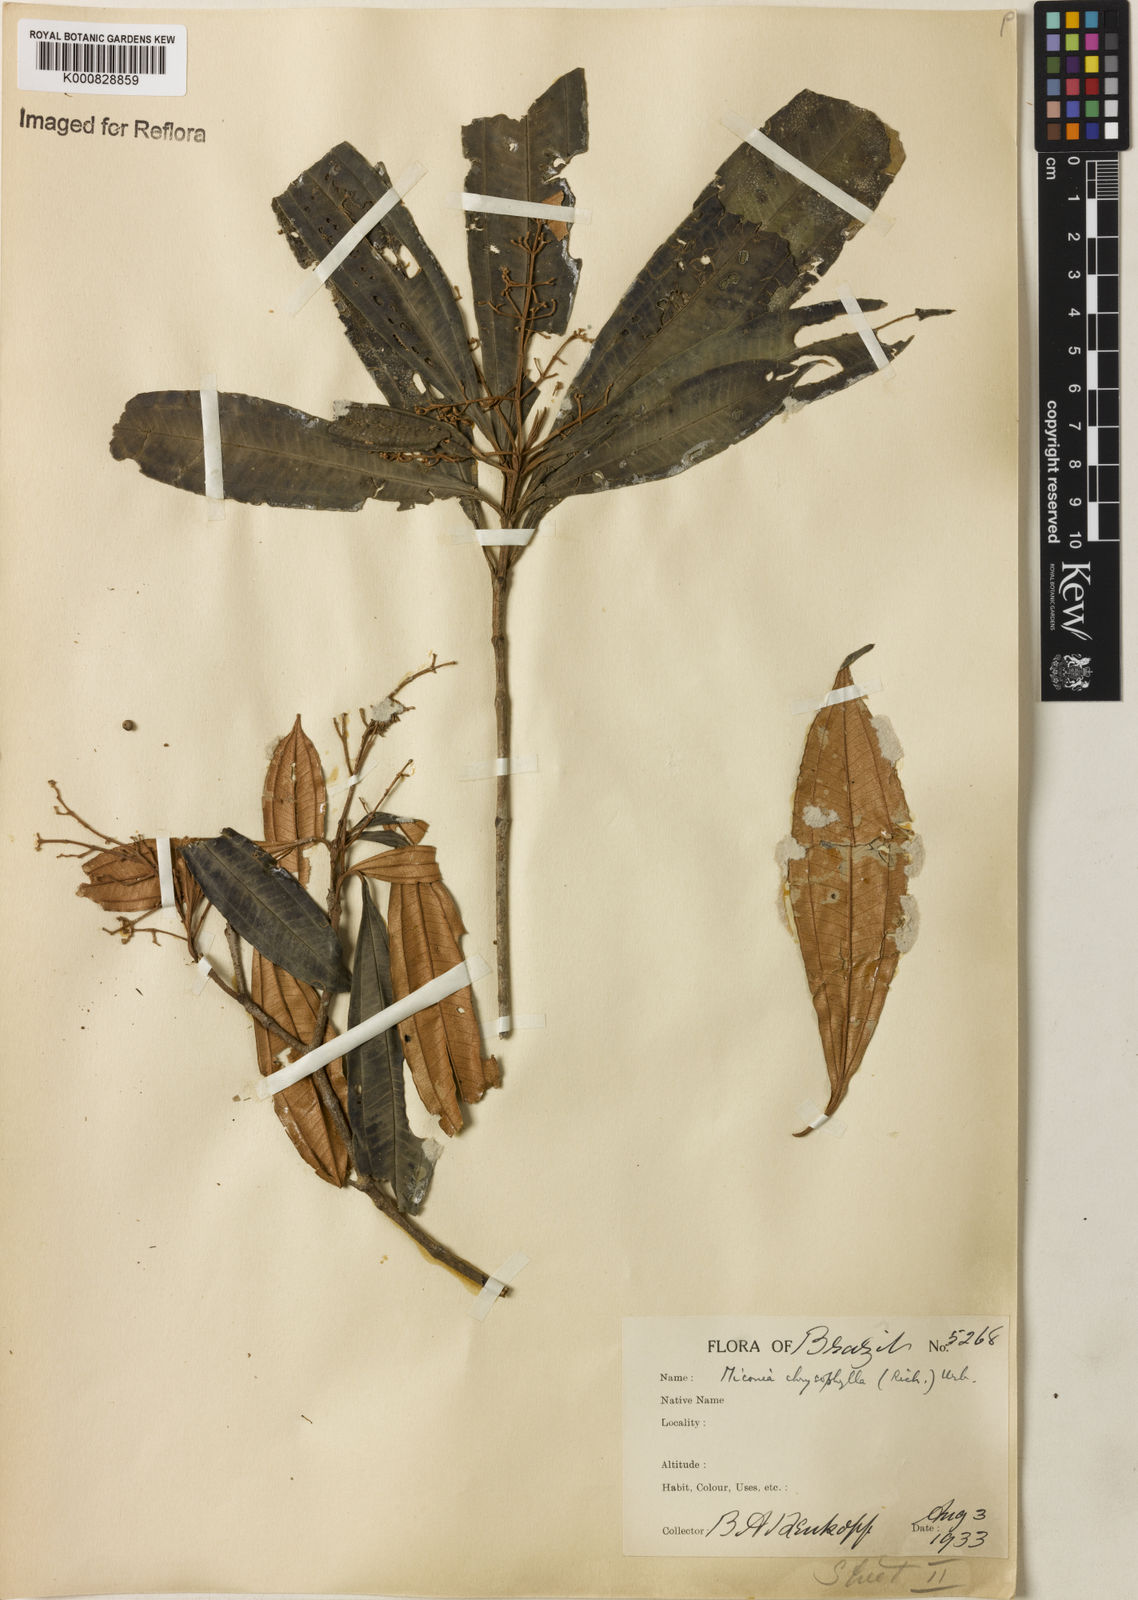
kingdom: Plantae
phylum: Tracheophyta
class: Magnoliopsida
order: Myrtales
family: Melastomataceae
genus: Miconia
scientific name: Miconia chrysophylla
